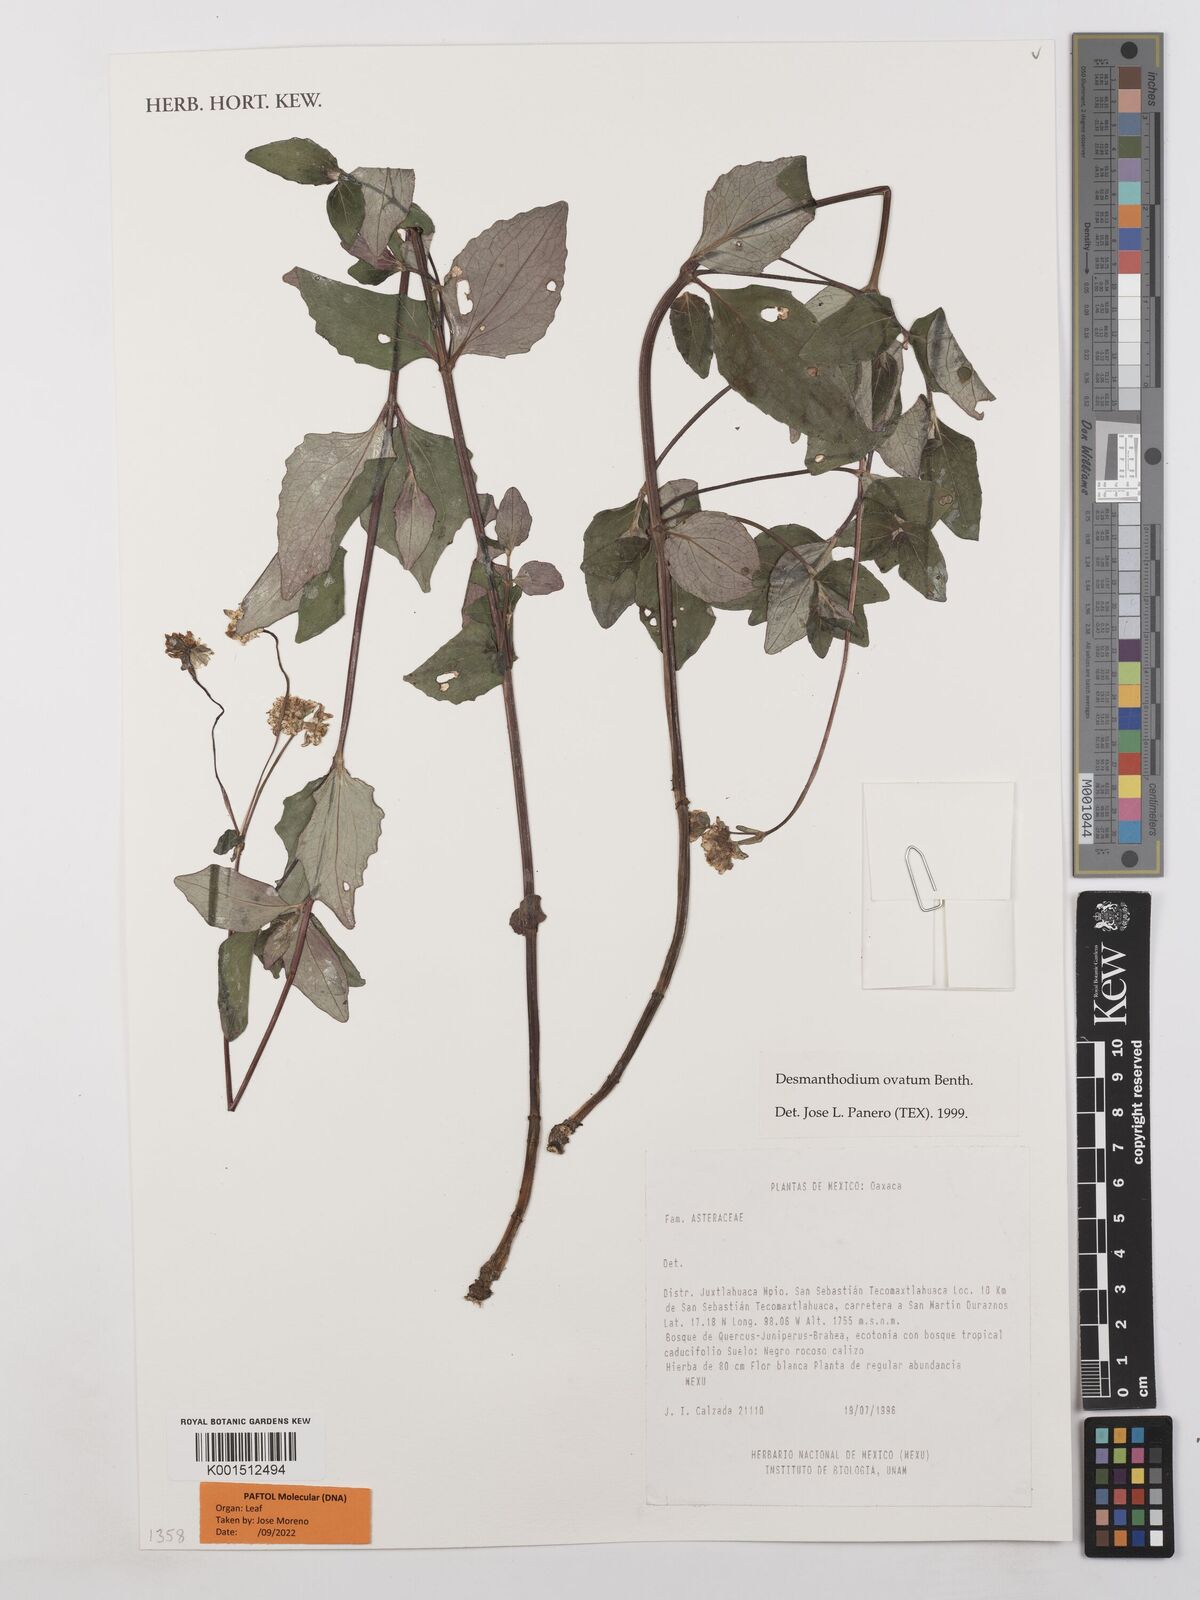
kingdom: Plantae
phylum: Tracheophyta
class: Magnoliopsida
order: Asterales
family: Asteraceae
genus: Desmanthodium
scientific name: Desmanthodium ovatum
